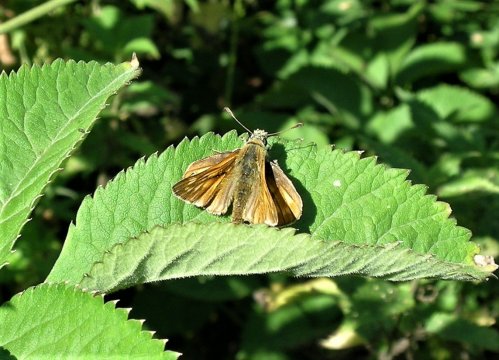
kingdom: Animalia
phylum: Arthropoda
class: Insecta
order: Lepidoptera
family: Hesperiidae
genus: Ochlodes
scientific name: Ochlodes venata
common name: Large Skipper
